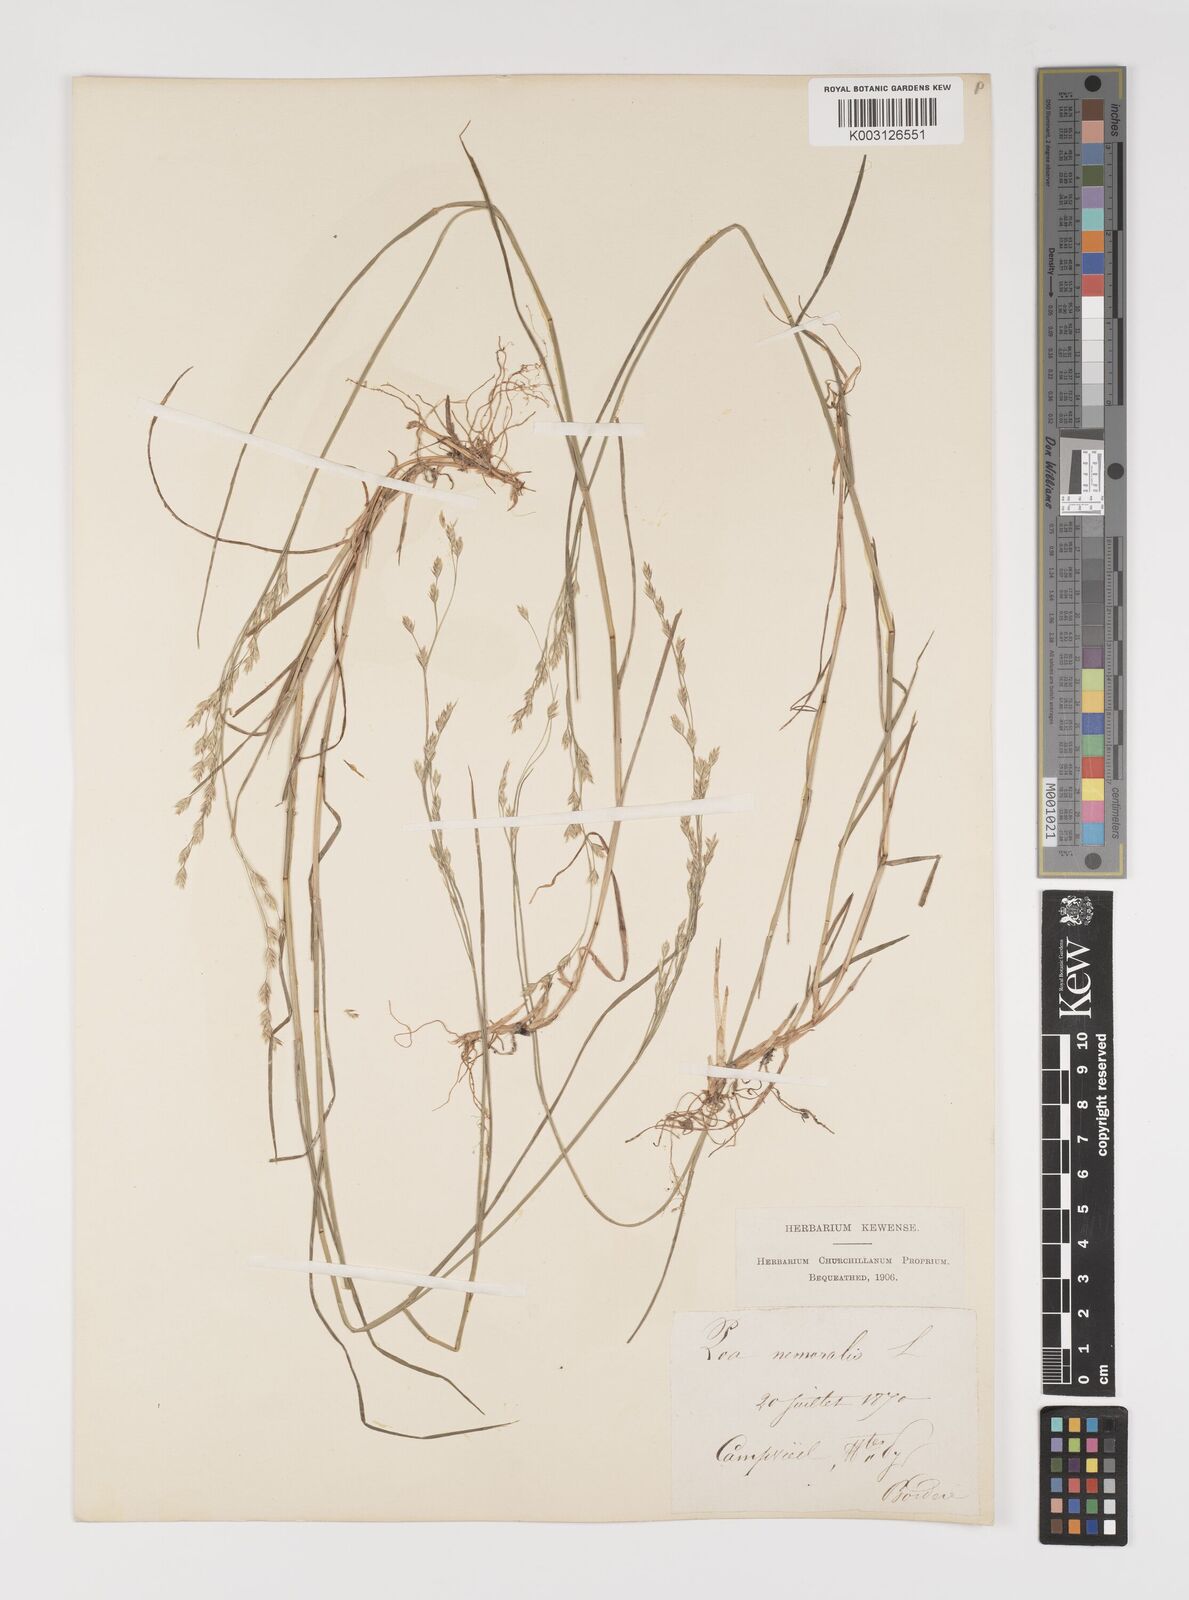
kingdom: Plantae
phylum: Tracheophyta
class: Liliopsida
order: Poales
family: Poaceae
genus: Poa
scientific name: Poa nemoralis
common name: Wood bluegrass
